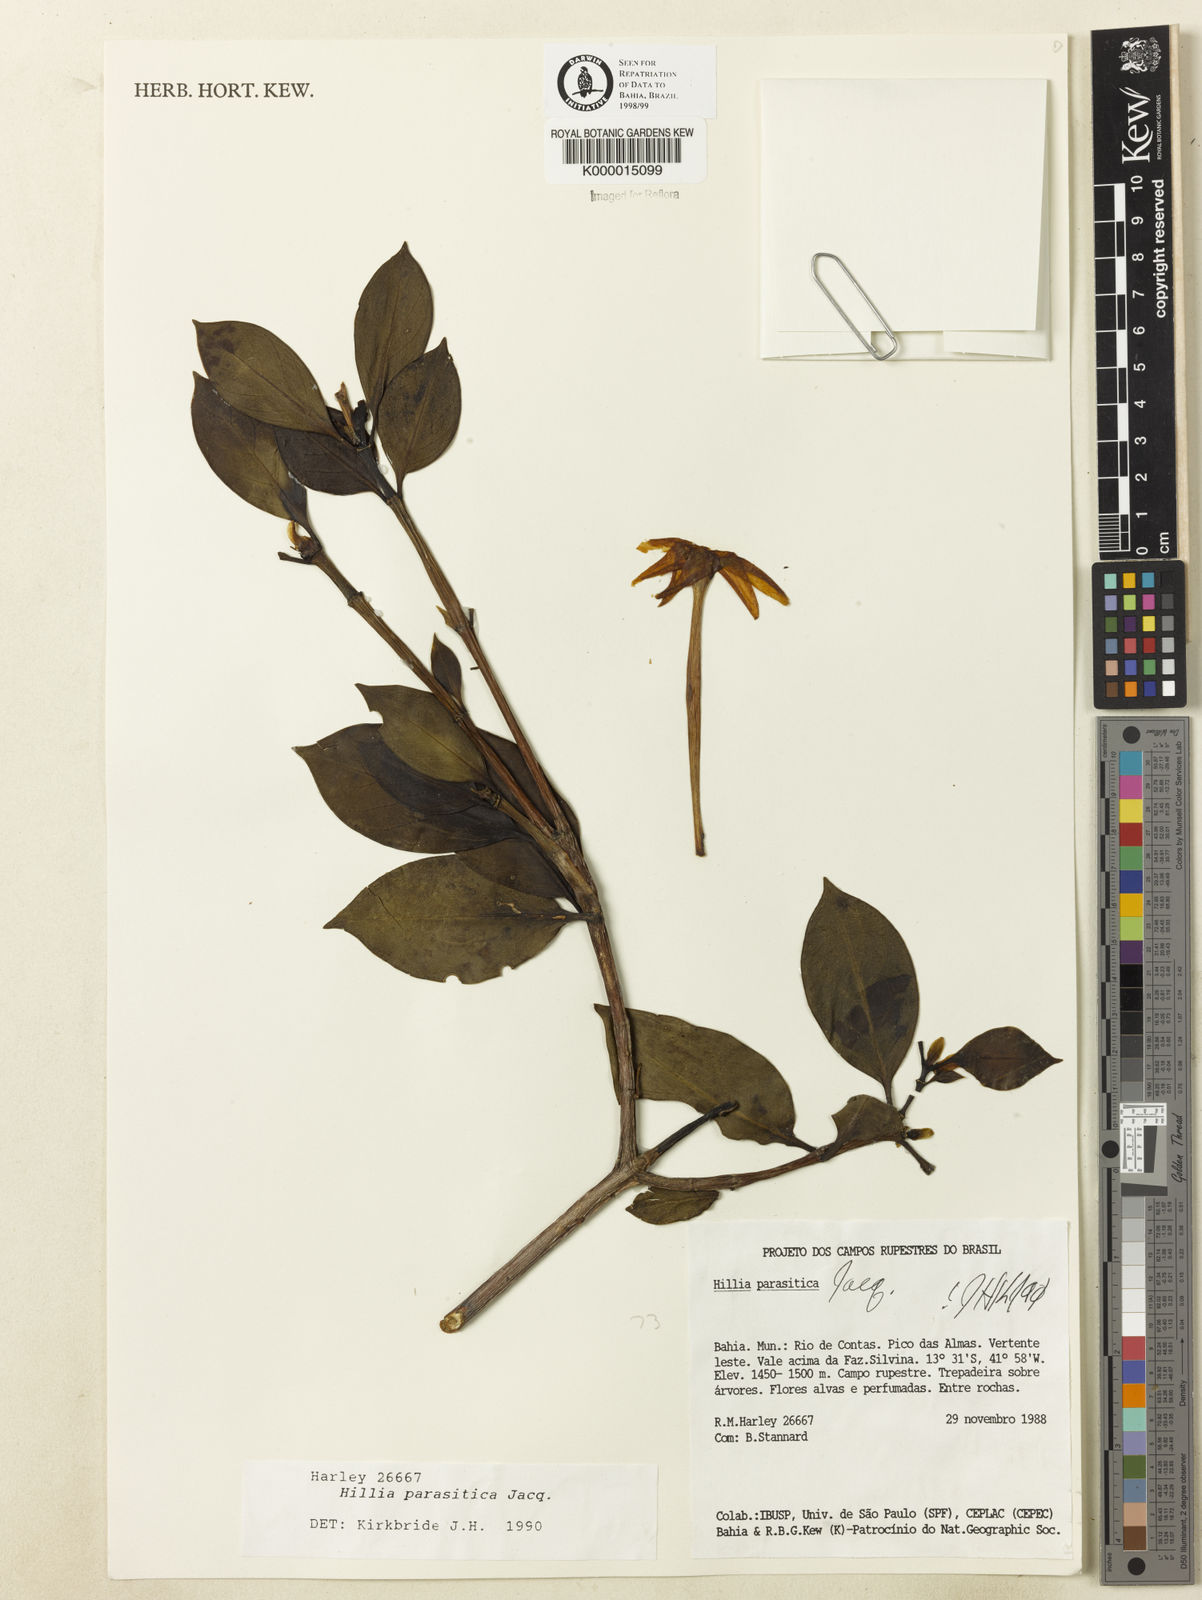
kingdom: Plantae
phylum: Tracheophyta
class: Magnoliopsida
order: Gentianales
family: Rubiaceae
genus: Hillia
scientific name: Hillia parasitica
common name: Morning star
